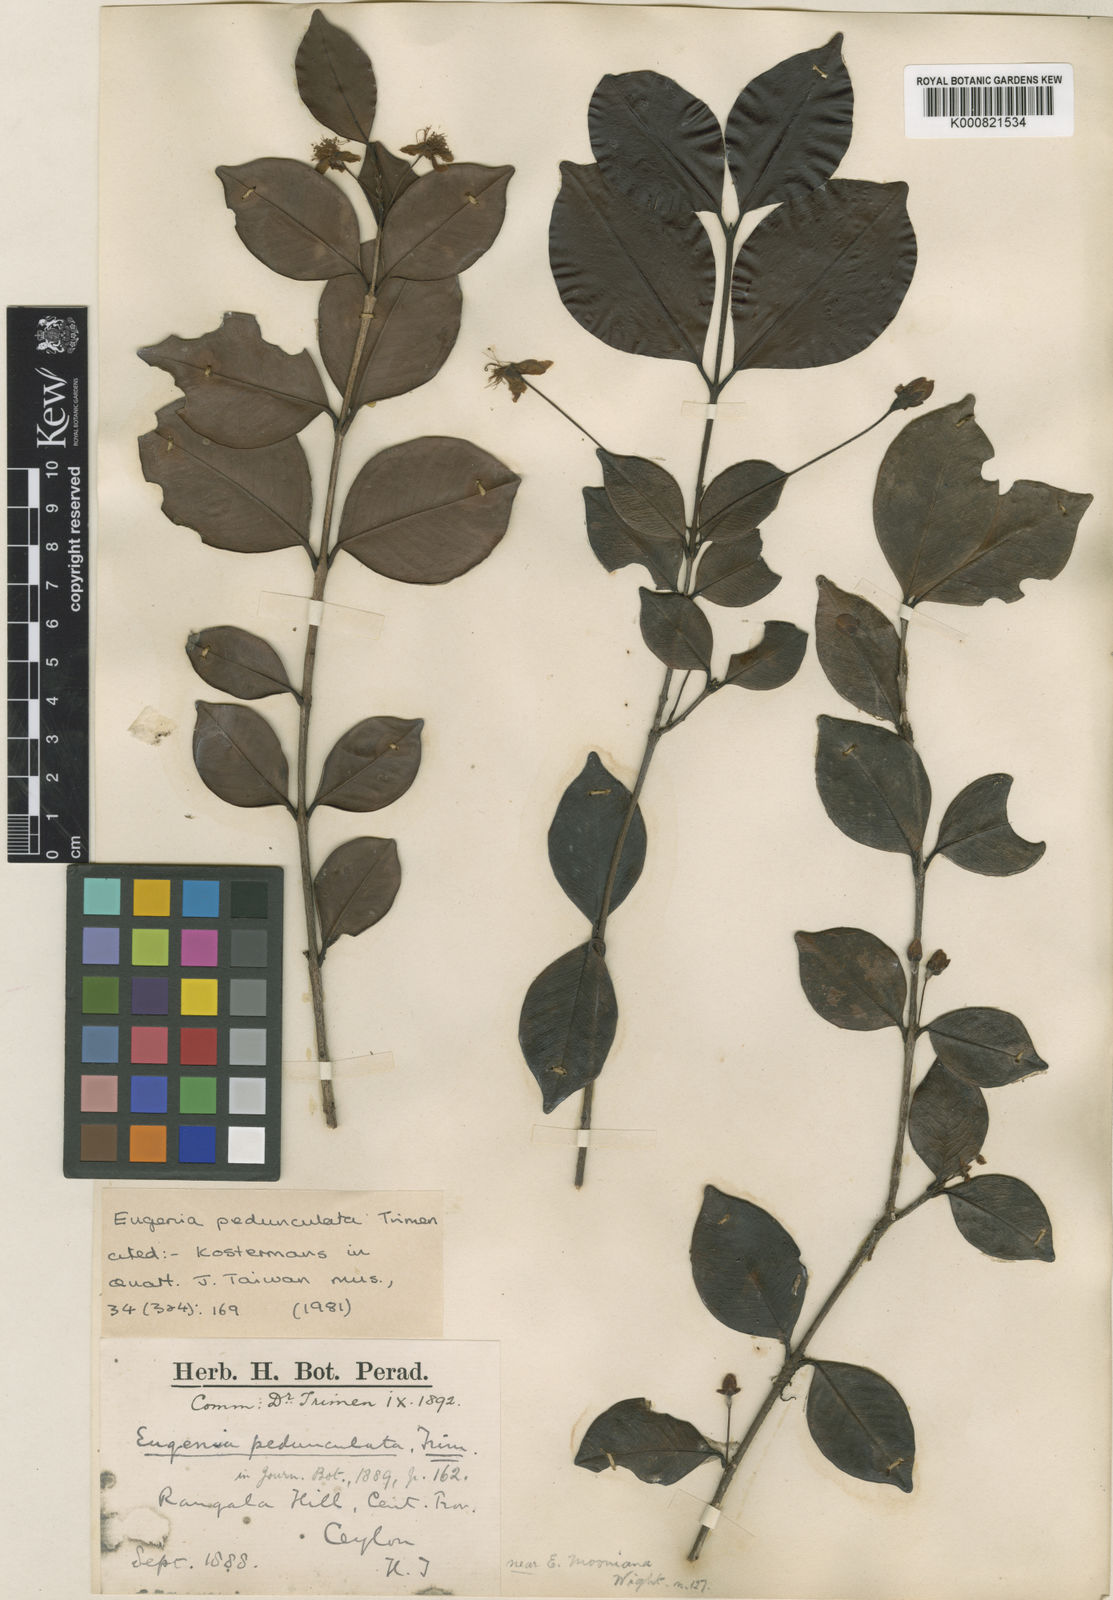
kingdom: Plantae
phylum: Tracheophyta
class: Magnoliopsida
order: Myrtales
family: Myrtaceae
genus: Eugenia
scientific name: Eugenia mabaeoides
